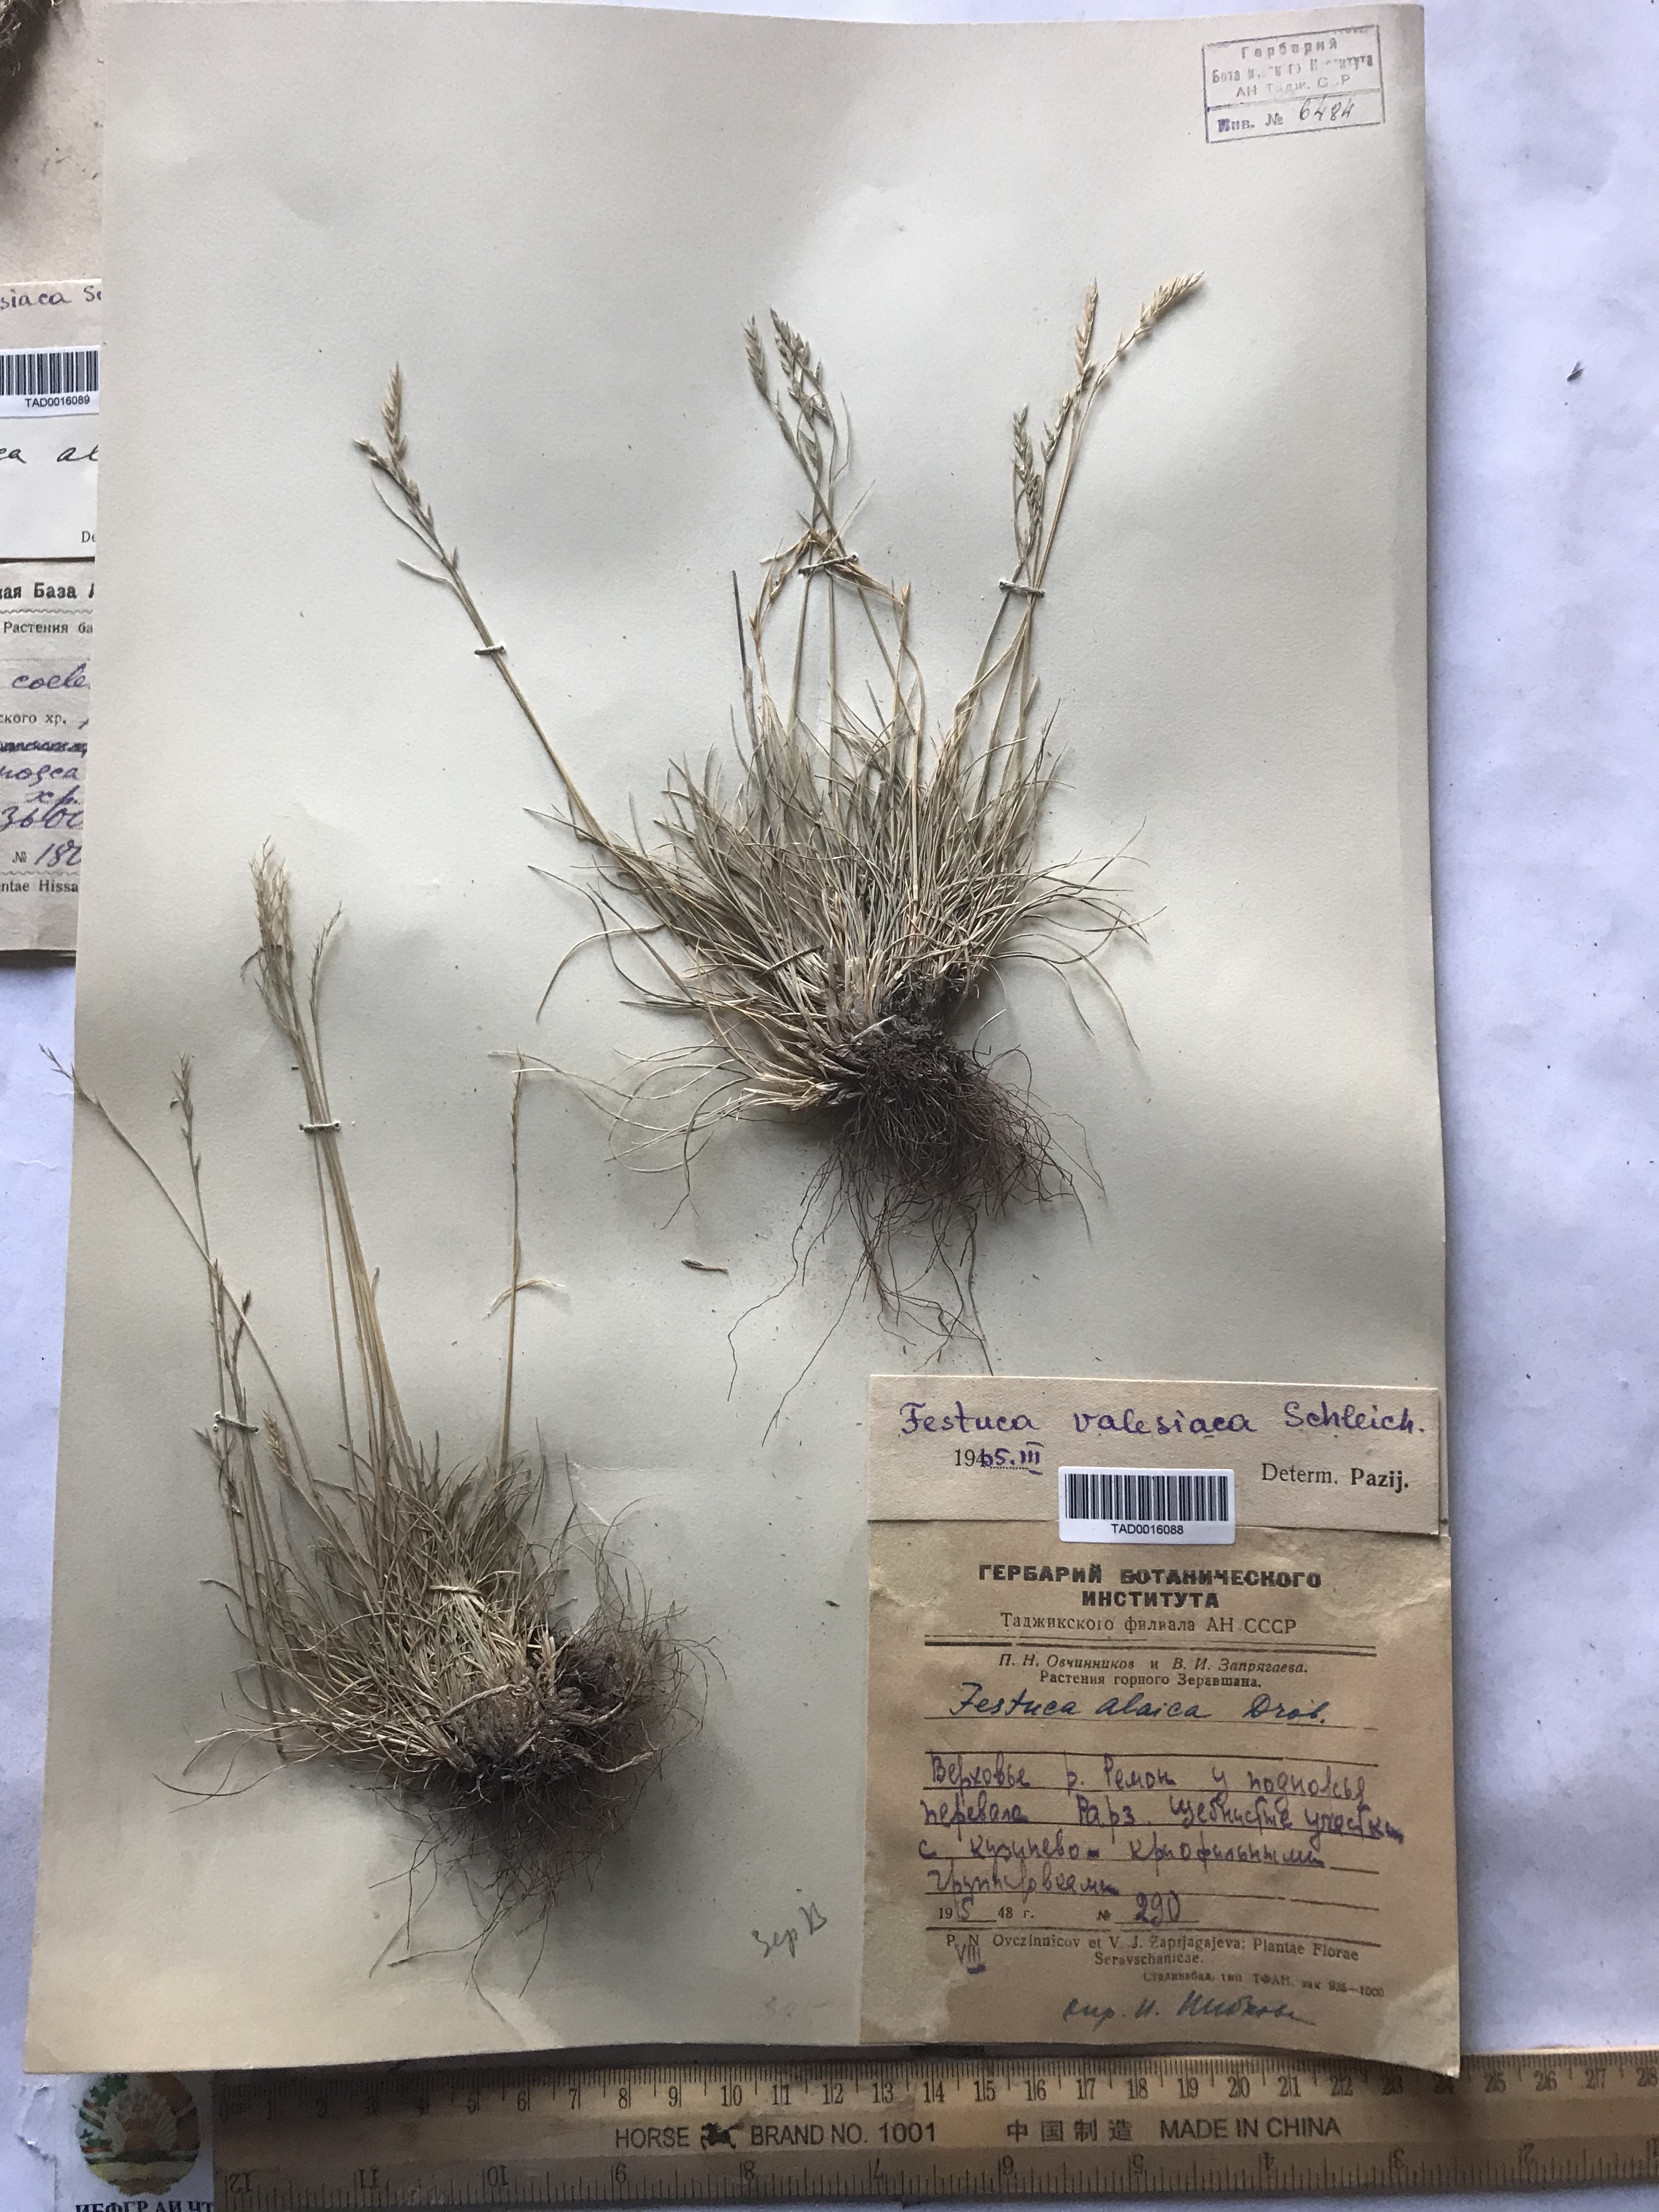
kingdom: Plantae
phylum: Tracheophyta
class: Liliopsida
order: Poales
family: Poaceae
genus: Festuca
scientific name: Festuca valesiaca
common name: Volga fescue
